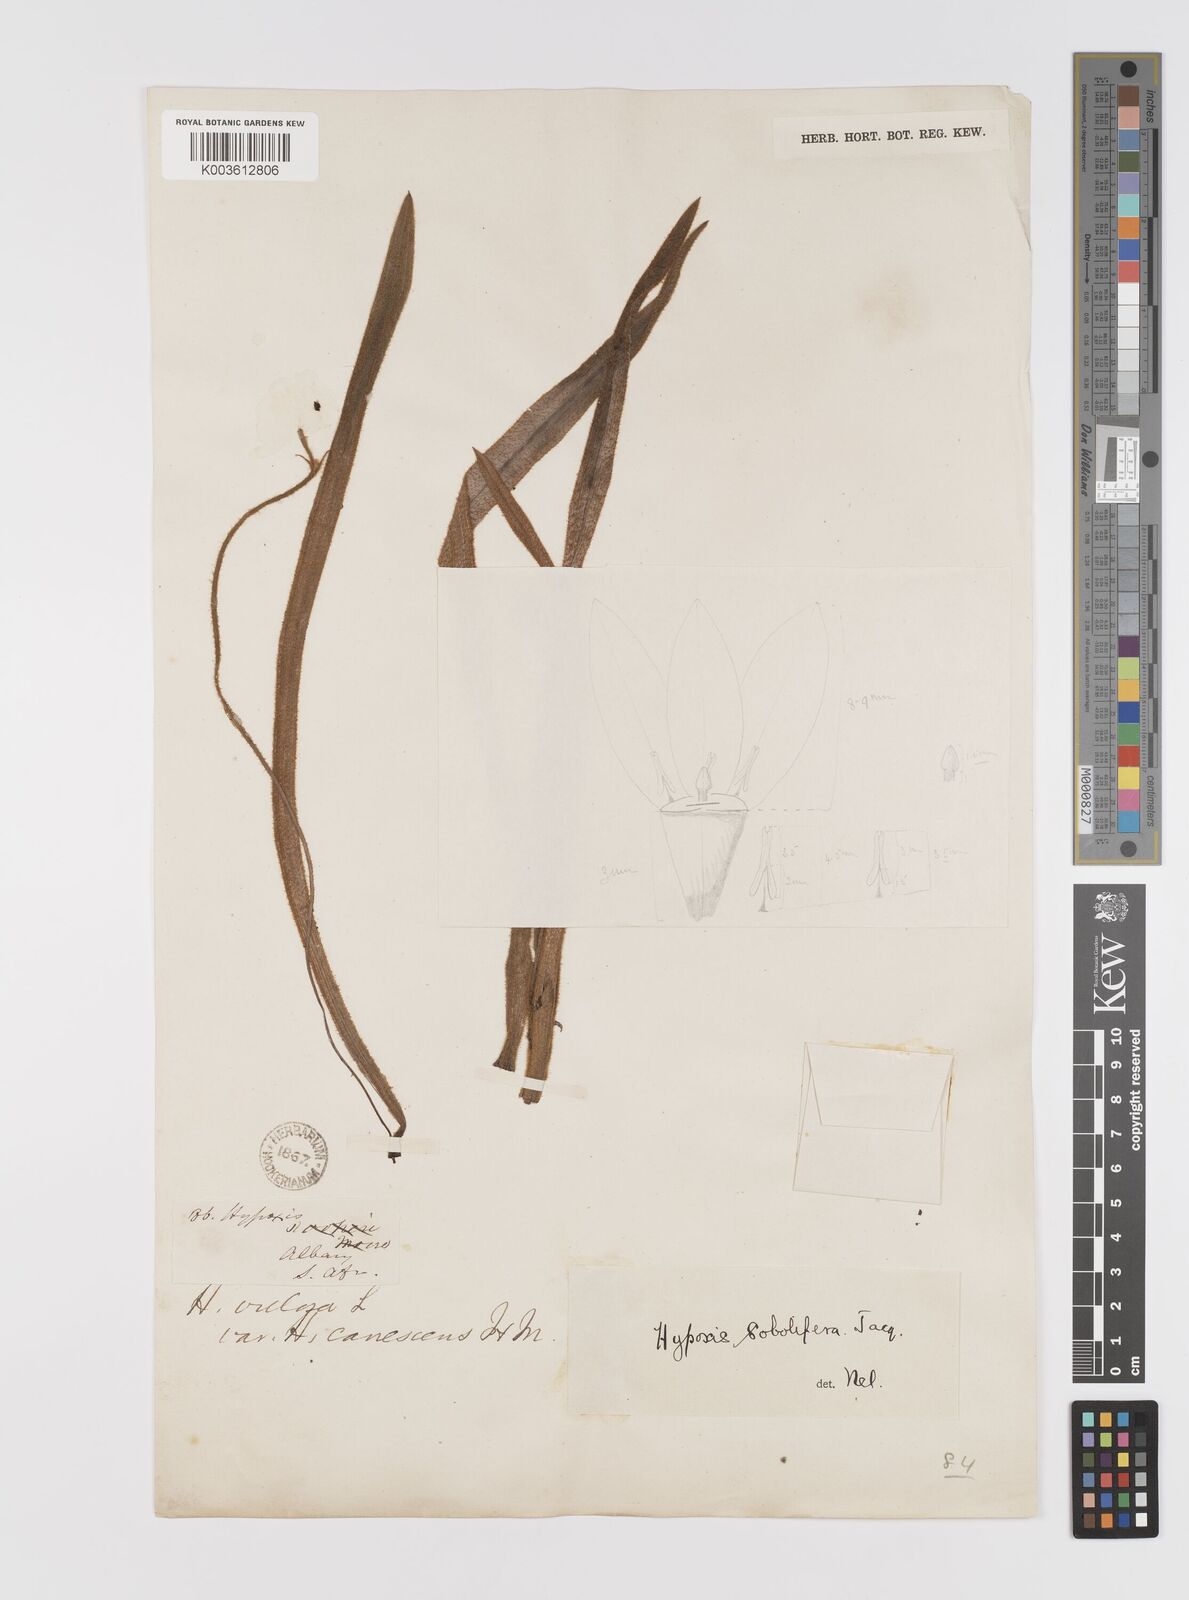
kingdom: Plantae
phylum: Tracheophyta
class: Liliopsida
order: Asparagales
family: Hypoxidaceae
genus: Hypoxis
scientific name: Hypoxis sobolifera
